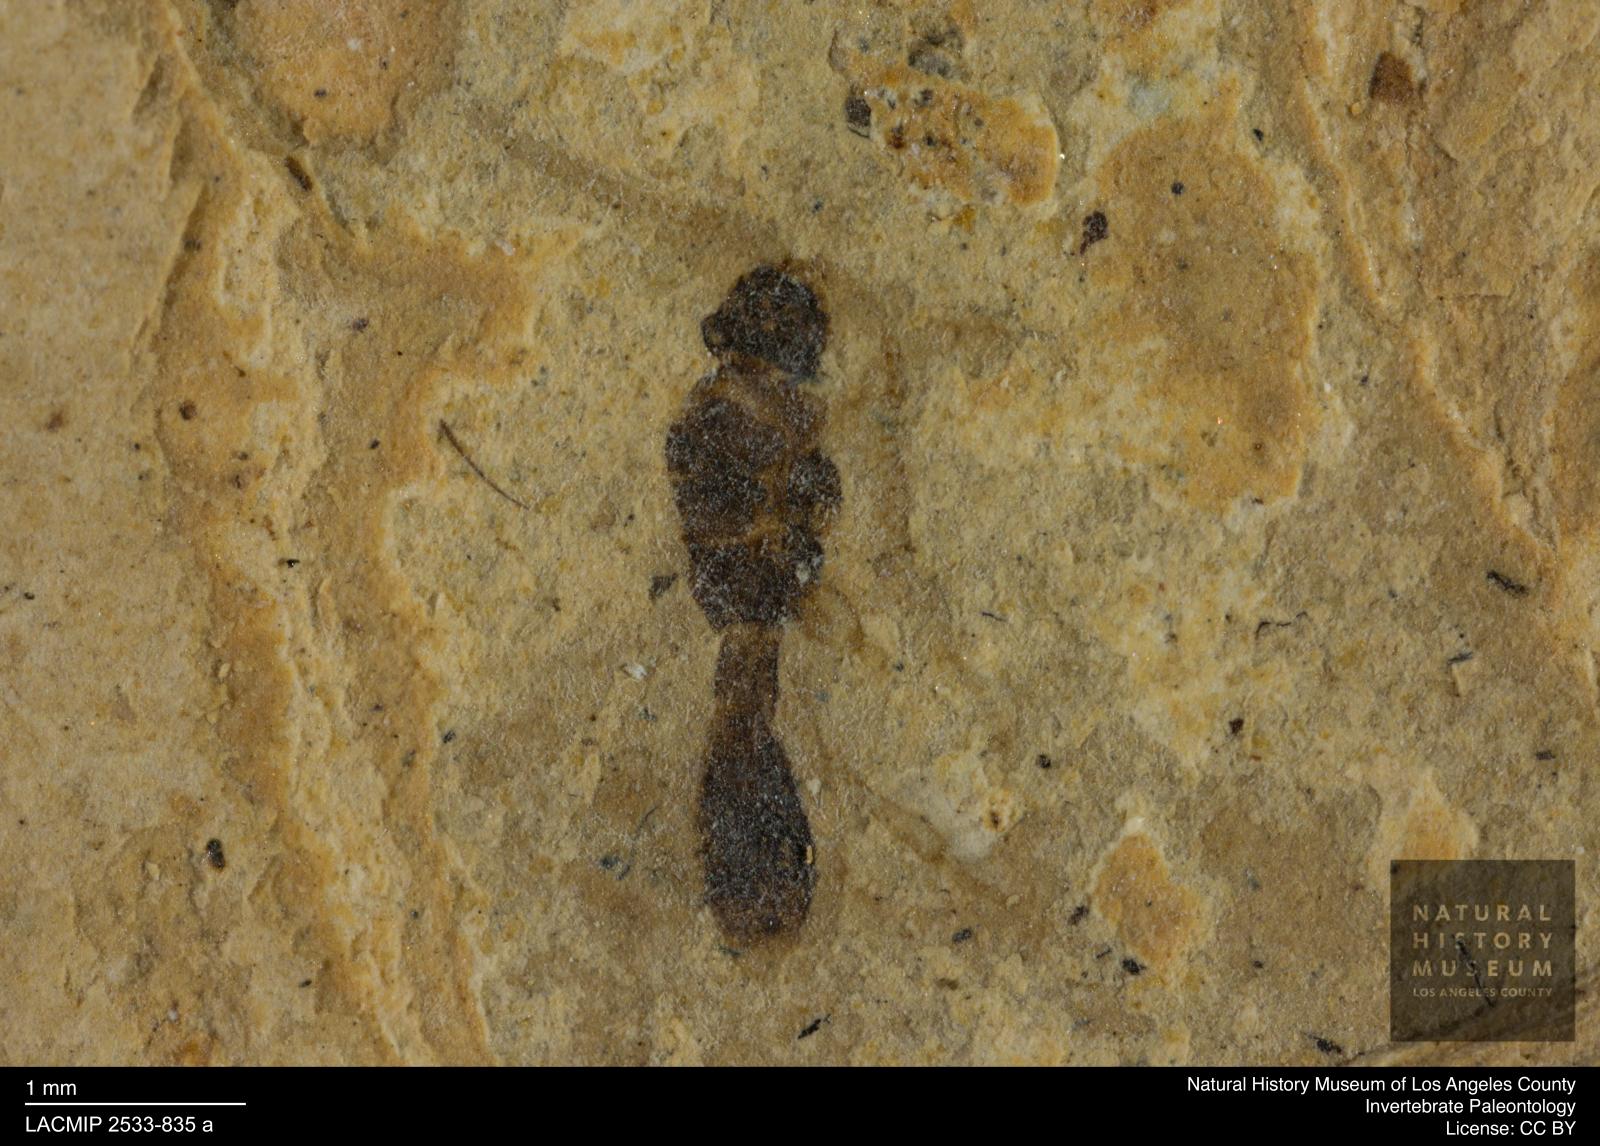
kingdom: Animalia
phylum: Arthropoda
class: Insecta
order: Hymenoptera
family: Diapriidae
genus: Psilomma
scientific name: Psilomma pulchellus
